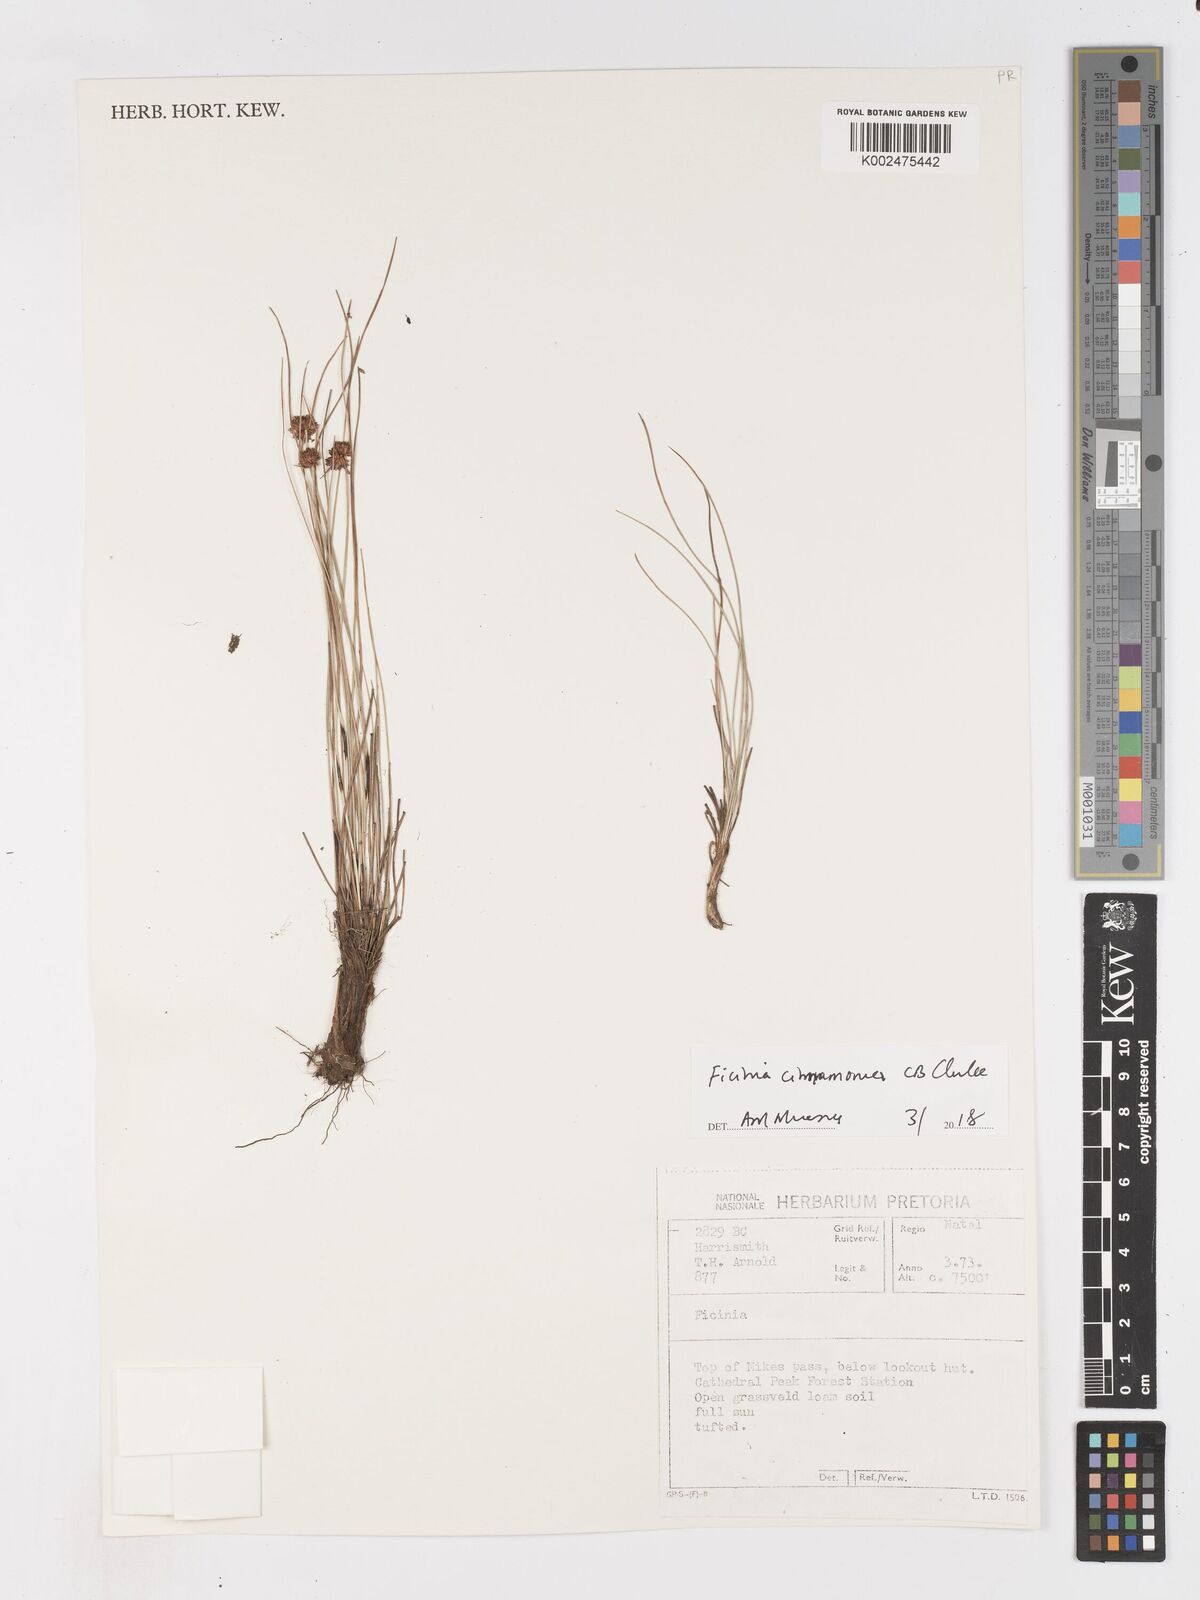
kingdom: Plantae
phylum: Tracheophyta
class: Liliopsida
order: Poales
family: Cyperaceae
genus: Ficinia
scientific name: Ficinia cinnamomea
